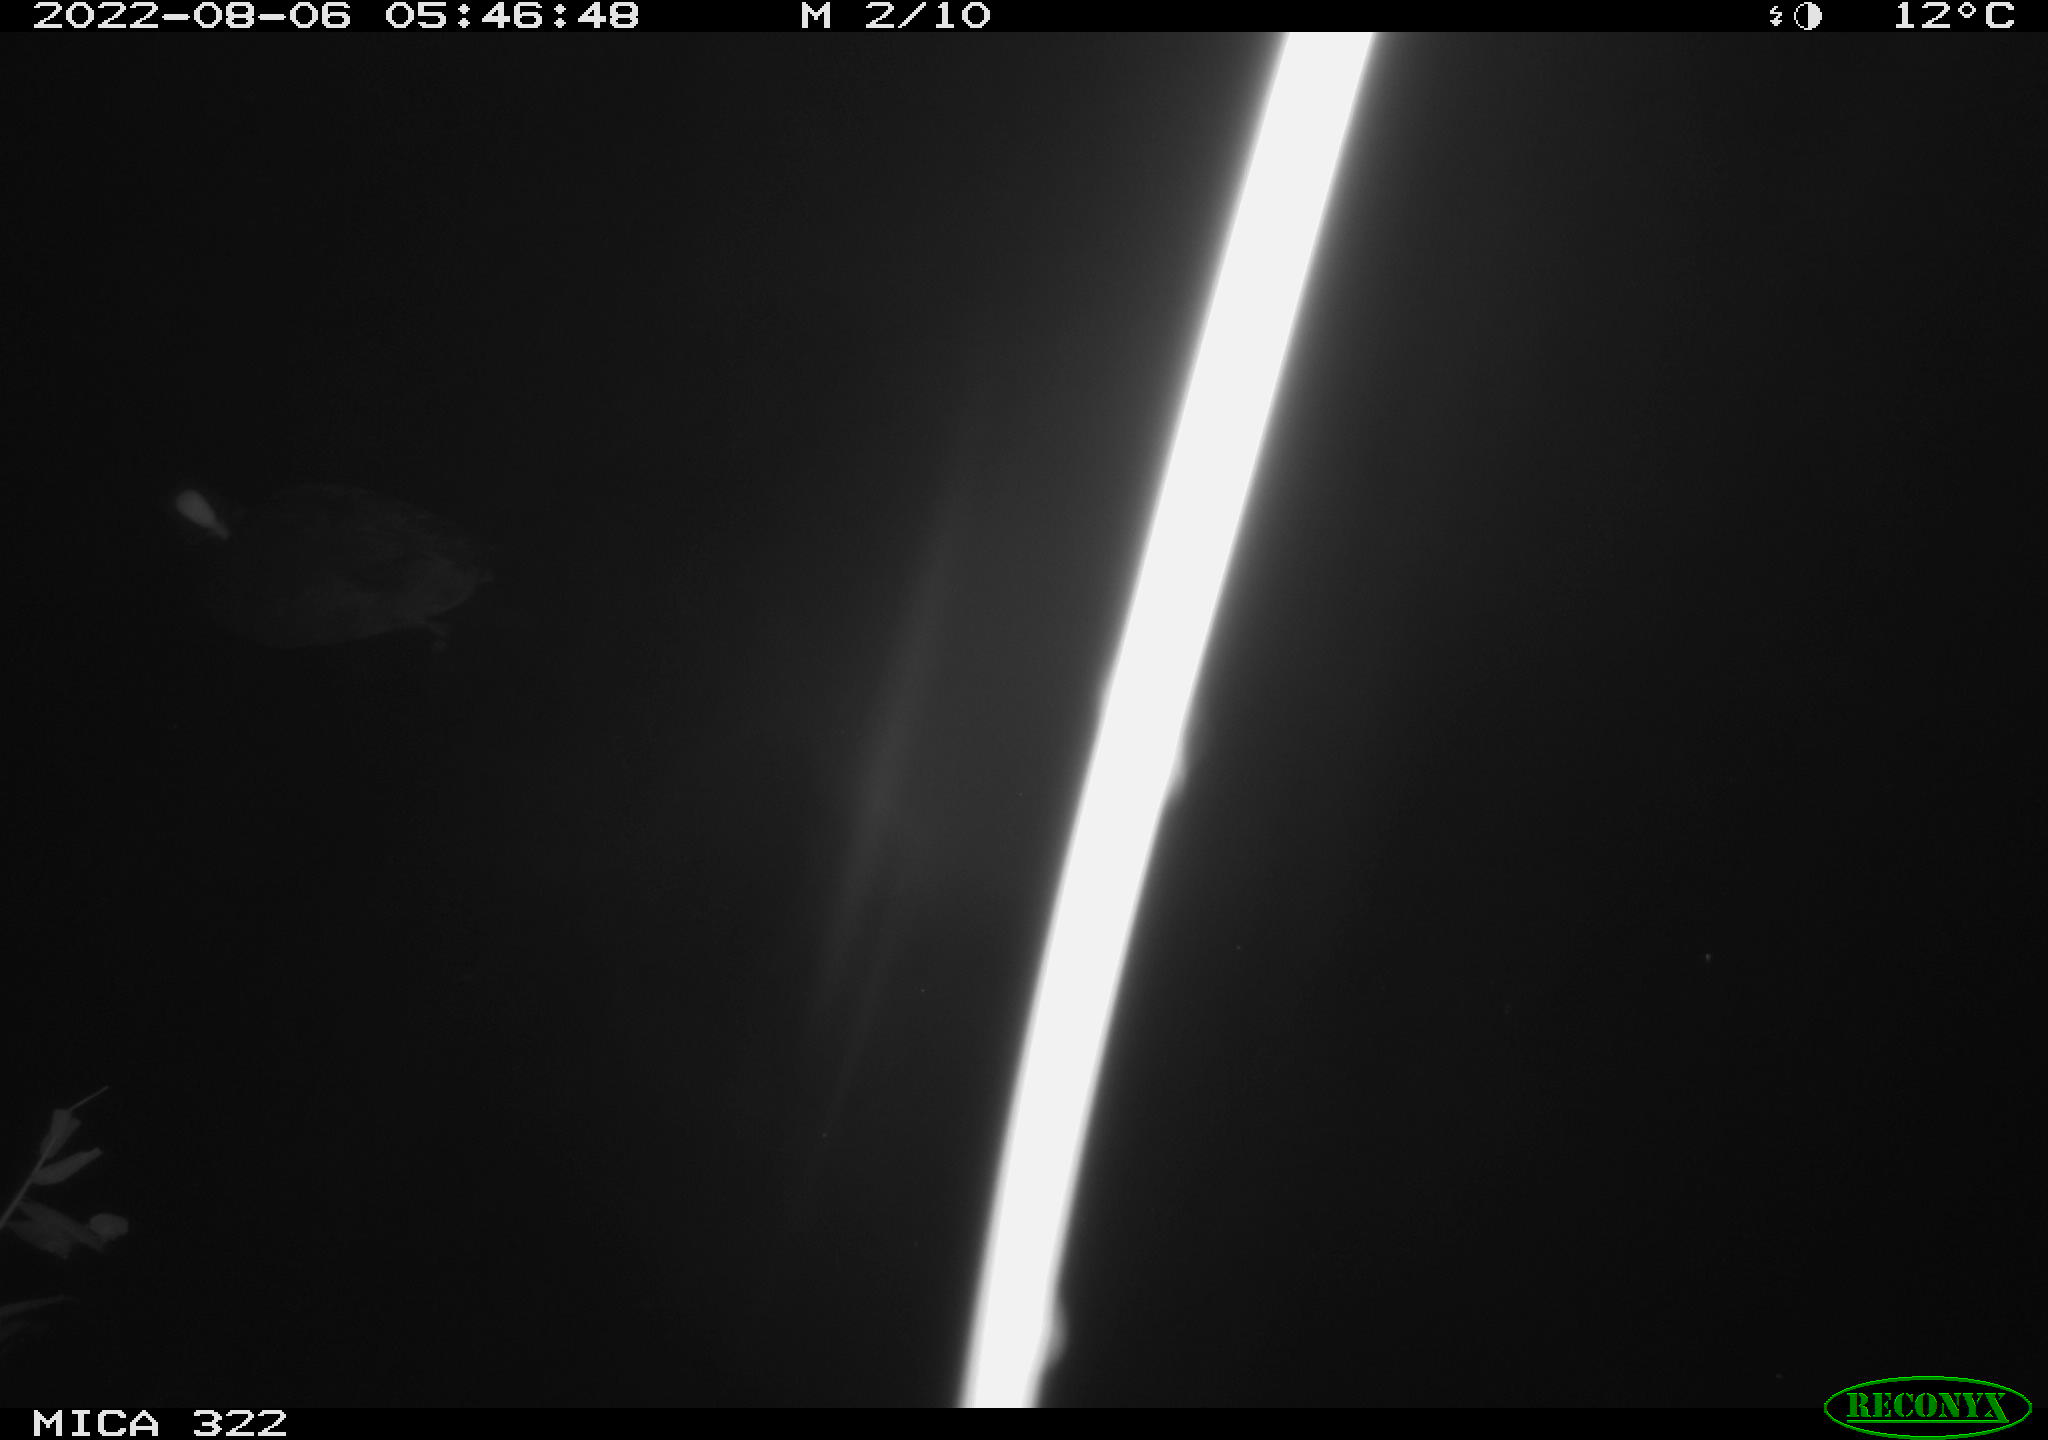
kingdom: Animalia
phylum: Chordata
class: Aves
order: Gruiformes
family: Rallidae
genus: Fulica
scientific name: Fulica atra
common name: Eurasian coot
